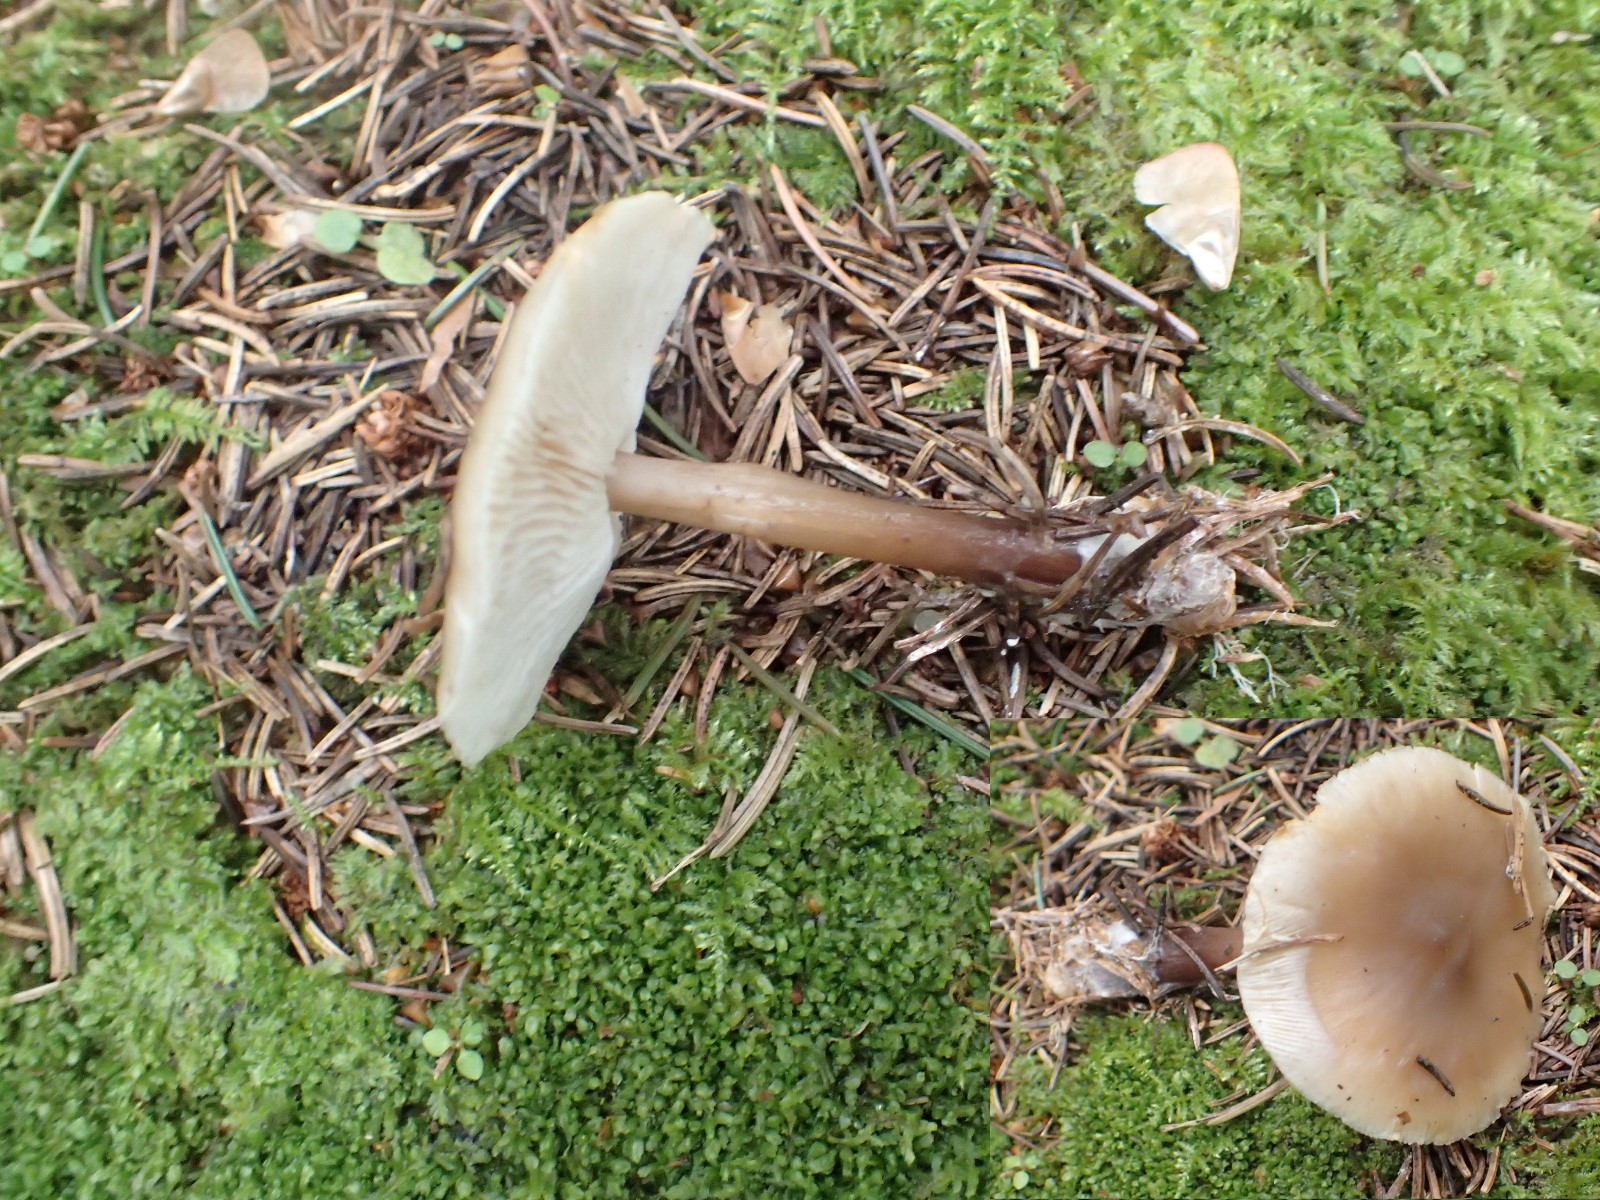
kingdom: Fungi
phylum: Basidiomycota
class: Agaricomycetes
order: Agaricales
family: Omphalotaceae
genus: Rhodocollybia
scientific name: Rhodocollybia asema
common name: horngrå fladhat
